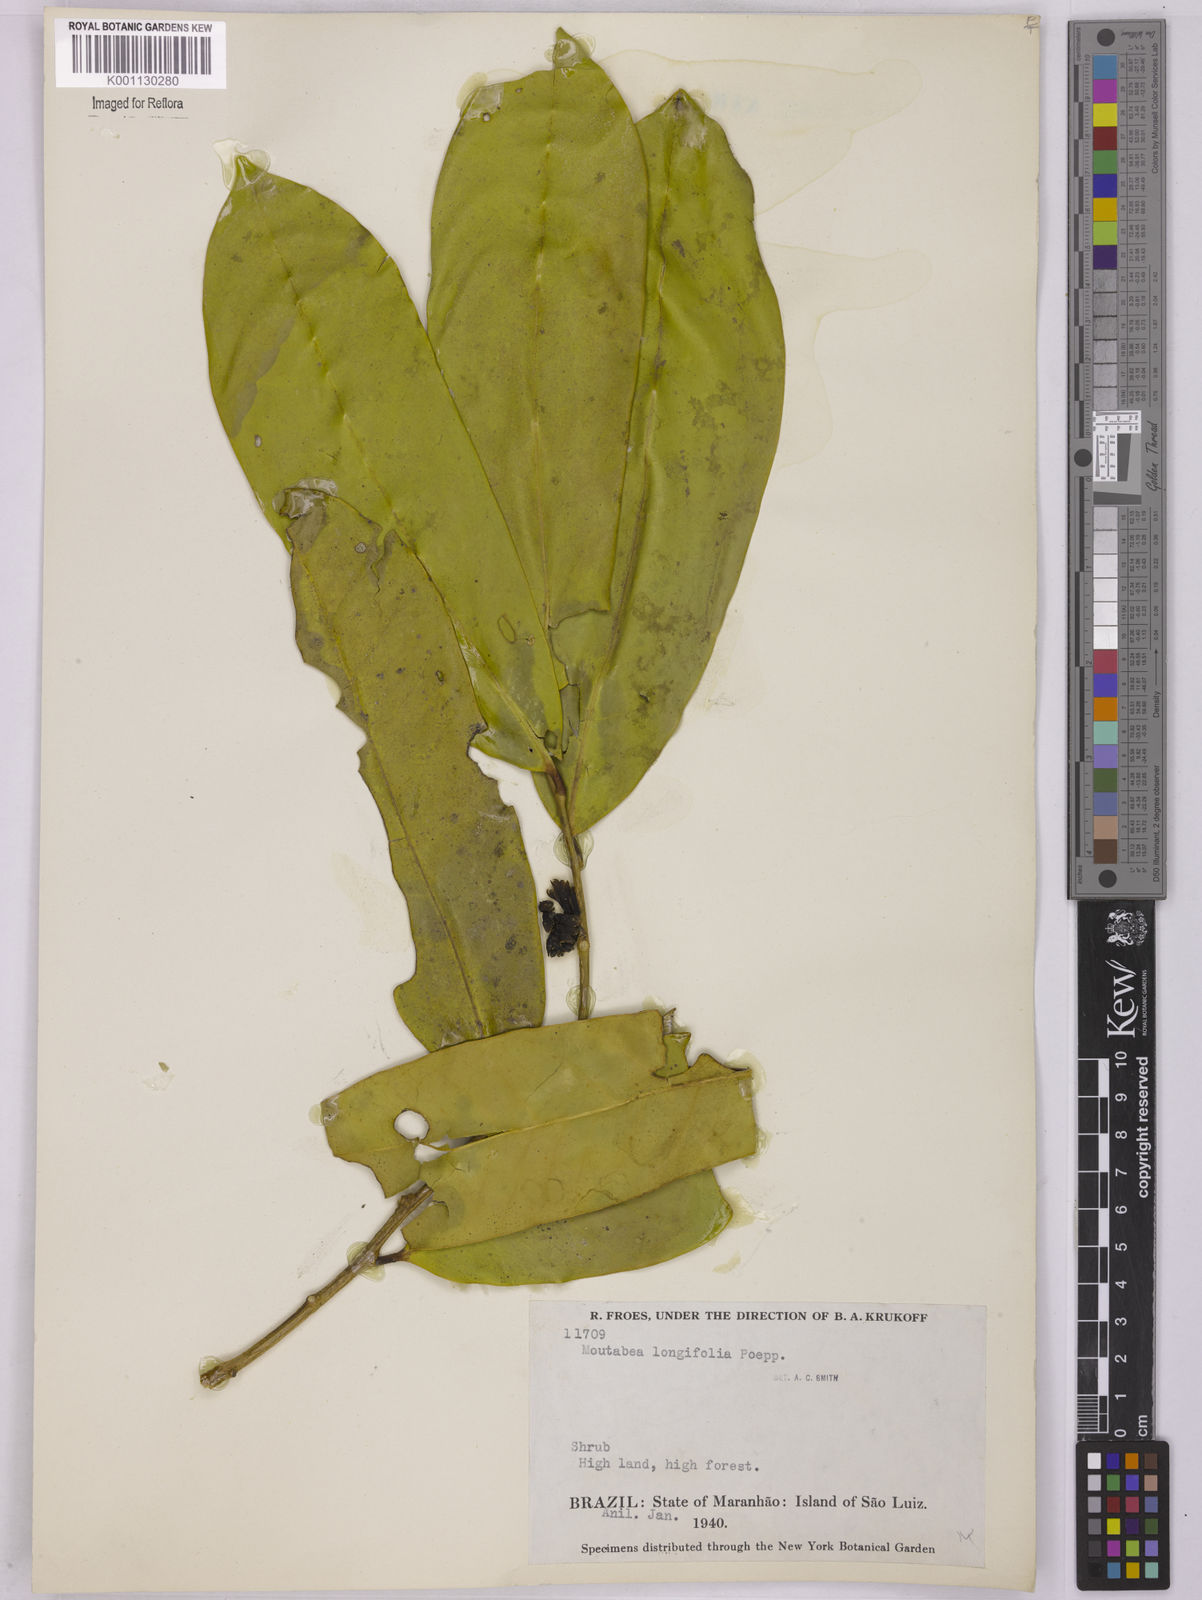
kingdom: Plantae
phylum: Tracheophyta
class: Magnoliopsida
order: Fabales
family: Polygalaceae
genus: Moutabea
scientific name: Moutabea aculeata
